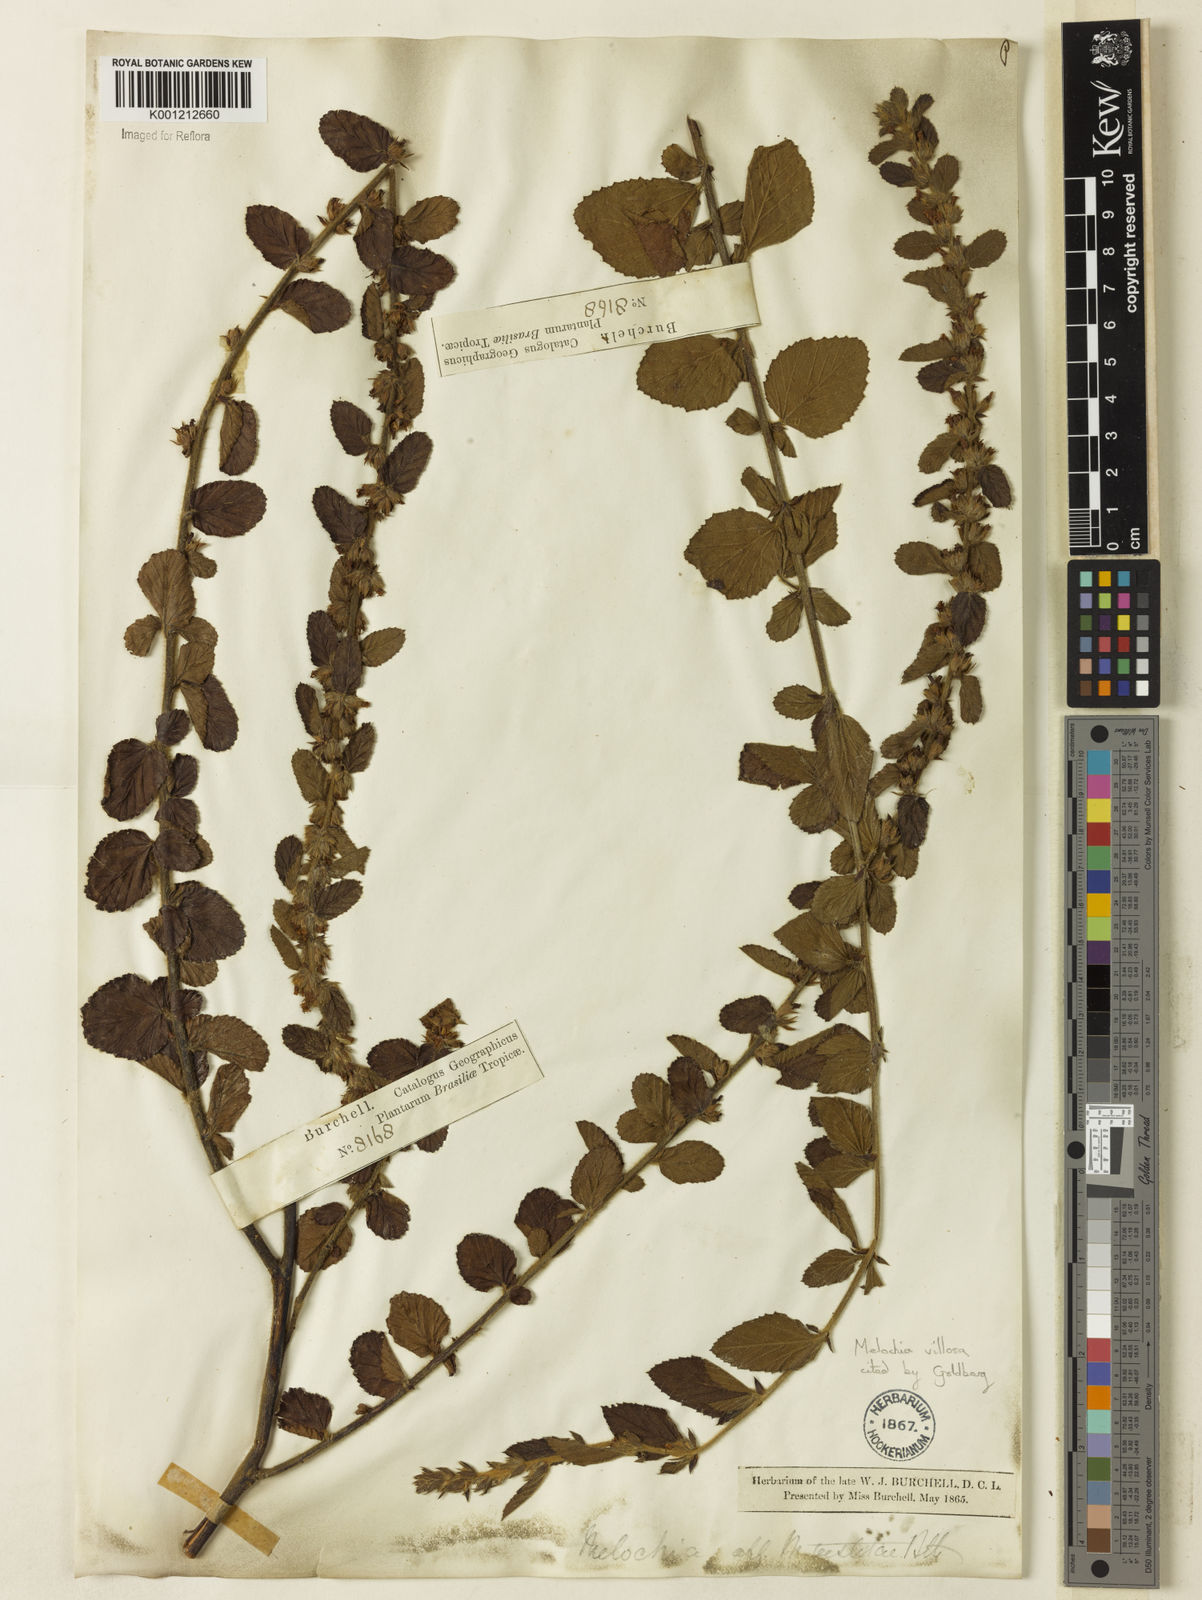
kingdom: Plantae
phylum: Tracheophyta
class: Magnoliopsida
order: Malvales
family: Malvaceae
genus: Melochia
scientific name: Melochia spicata
